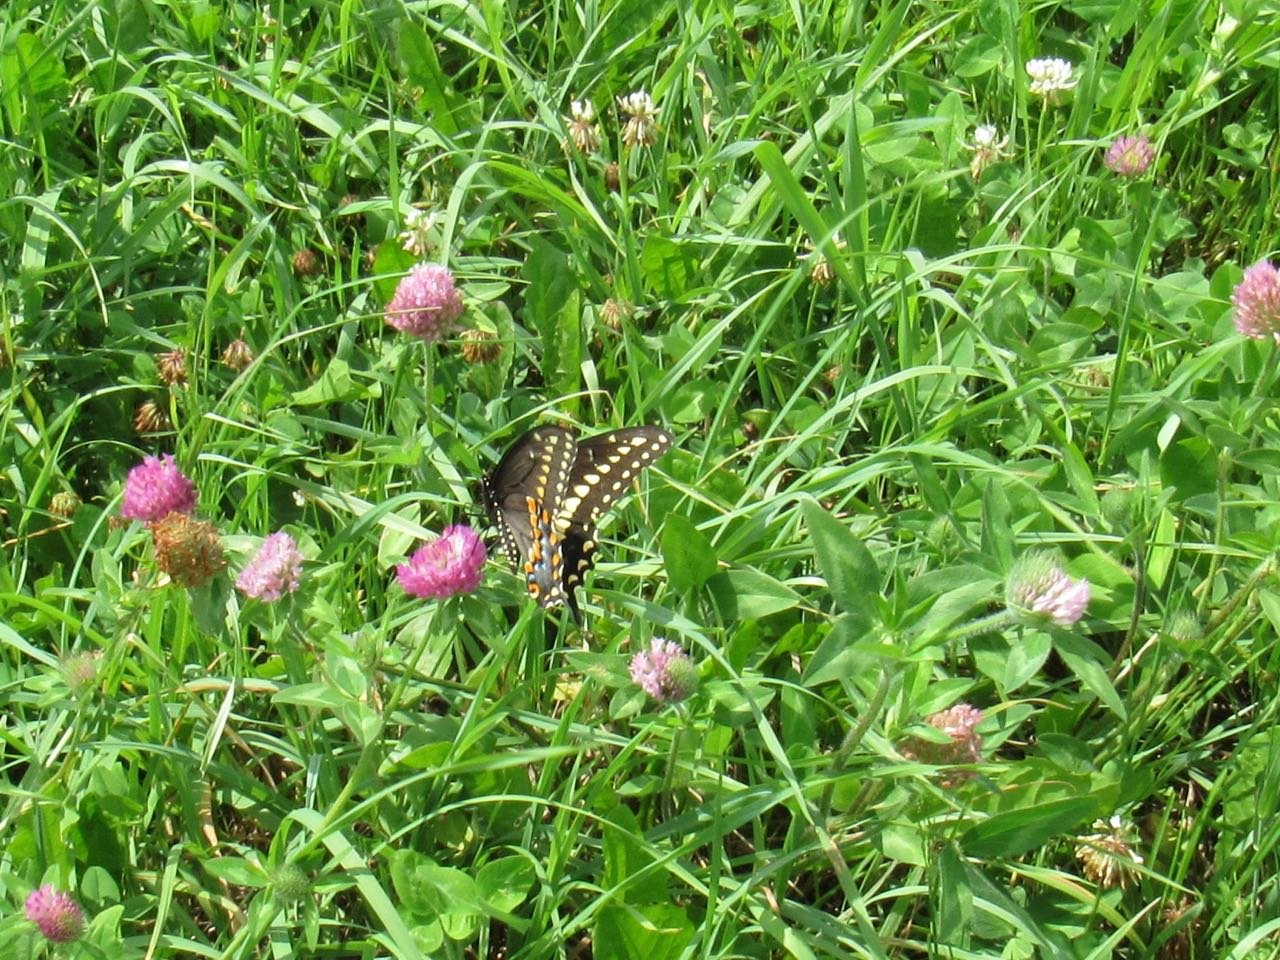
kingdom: Animalia
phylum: Arthropoda
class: Insecta
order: Lepidoptera
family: Papilionidae
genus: Papilio
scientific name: Papilio polyxenes
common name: Black Swallowtail
